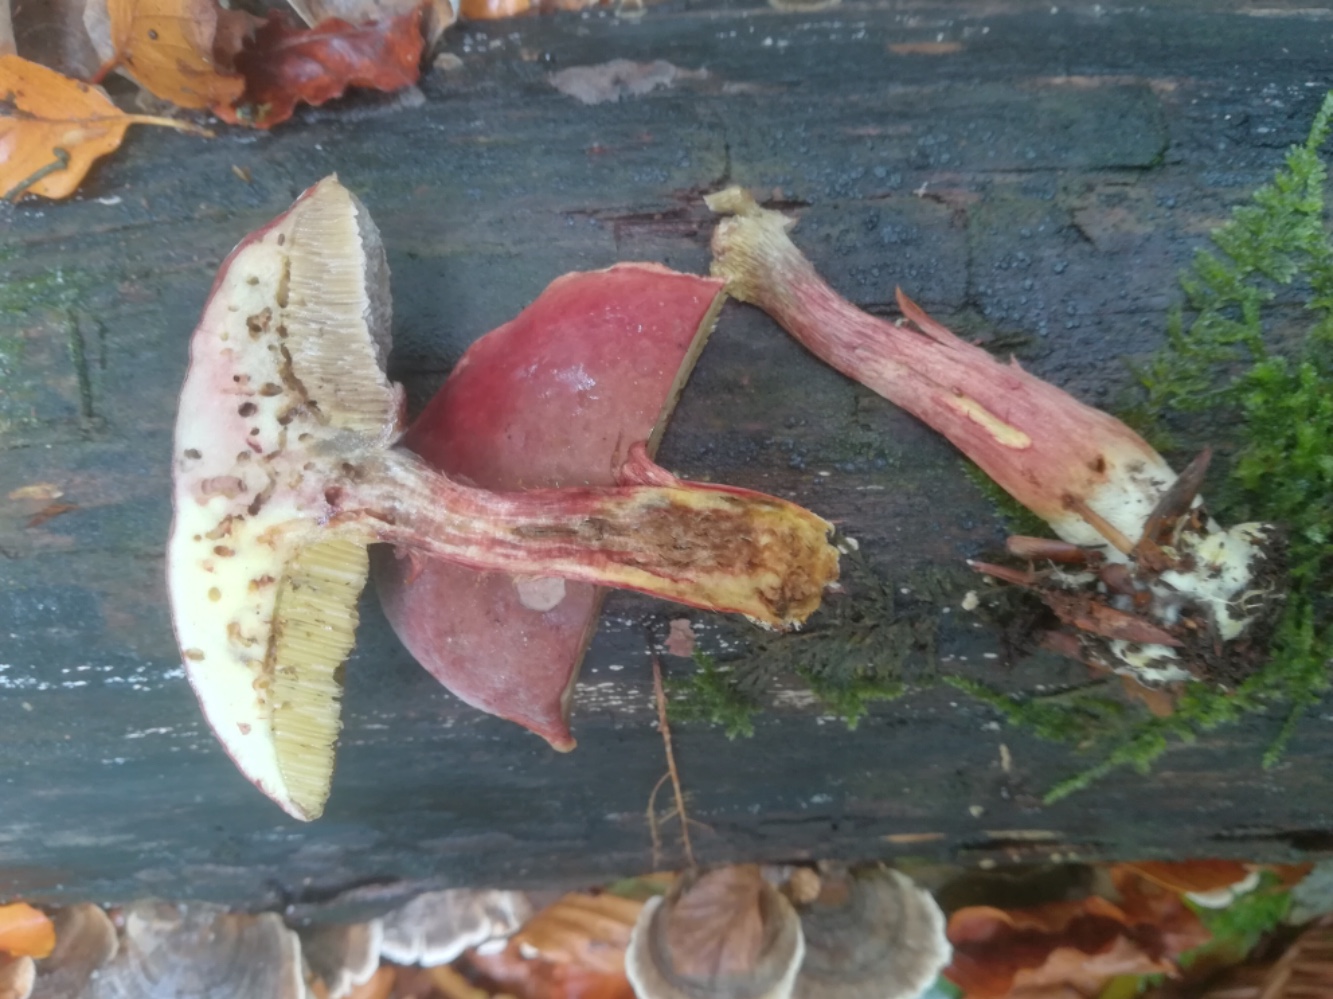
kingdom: Fungi
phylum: Basidiomycota
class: Agaricomycetes
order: Boletales
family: Boletaceae
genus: Hortiboletus
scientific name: Hortiboletus rubellus
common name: blodrød rørhat
